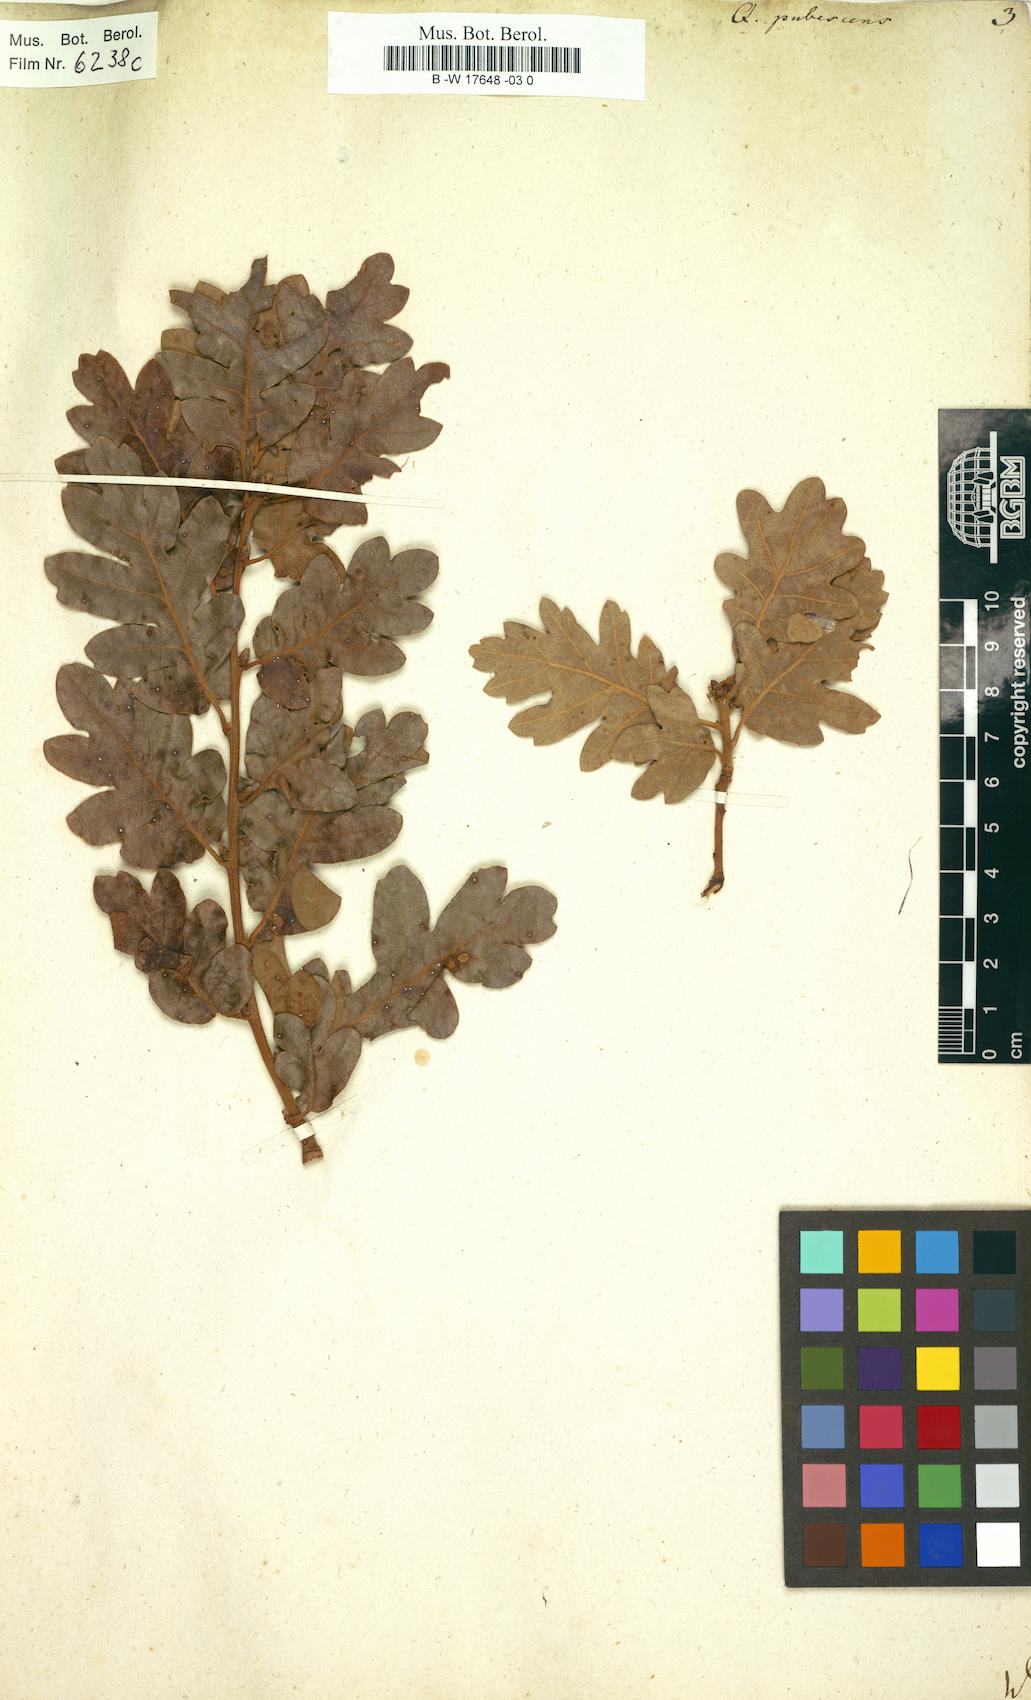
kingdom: Plantae
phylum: Tracheophyta
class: Magnoliopsida
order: Fagales
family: Fagaceae
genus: Quercus
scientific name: Quercus pubescens
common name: Downy oak
